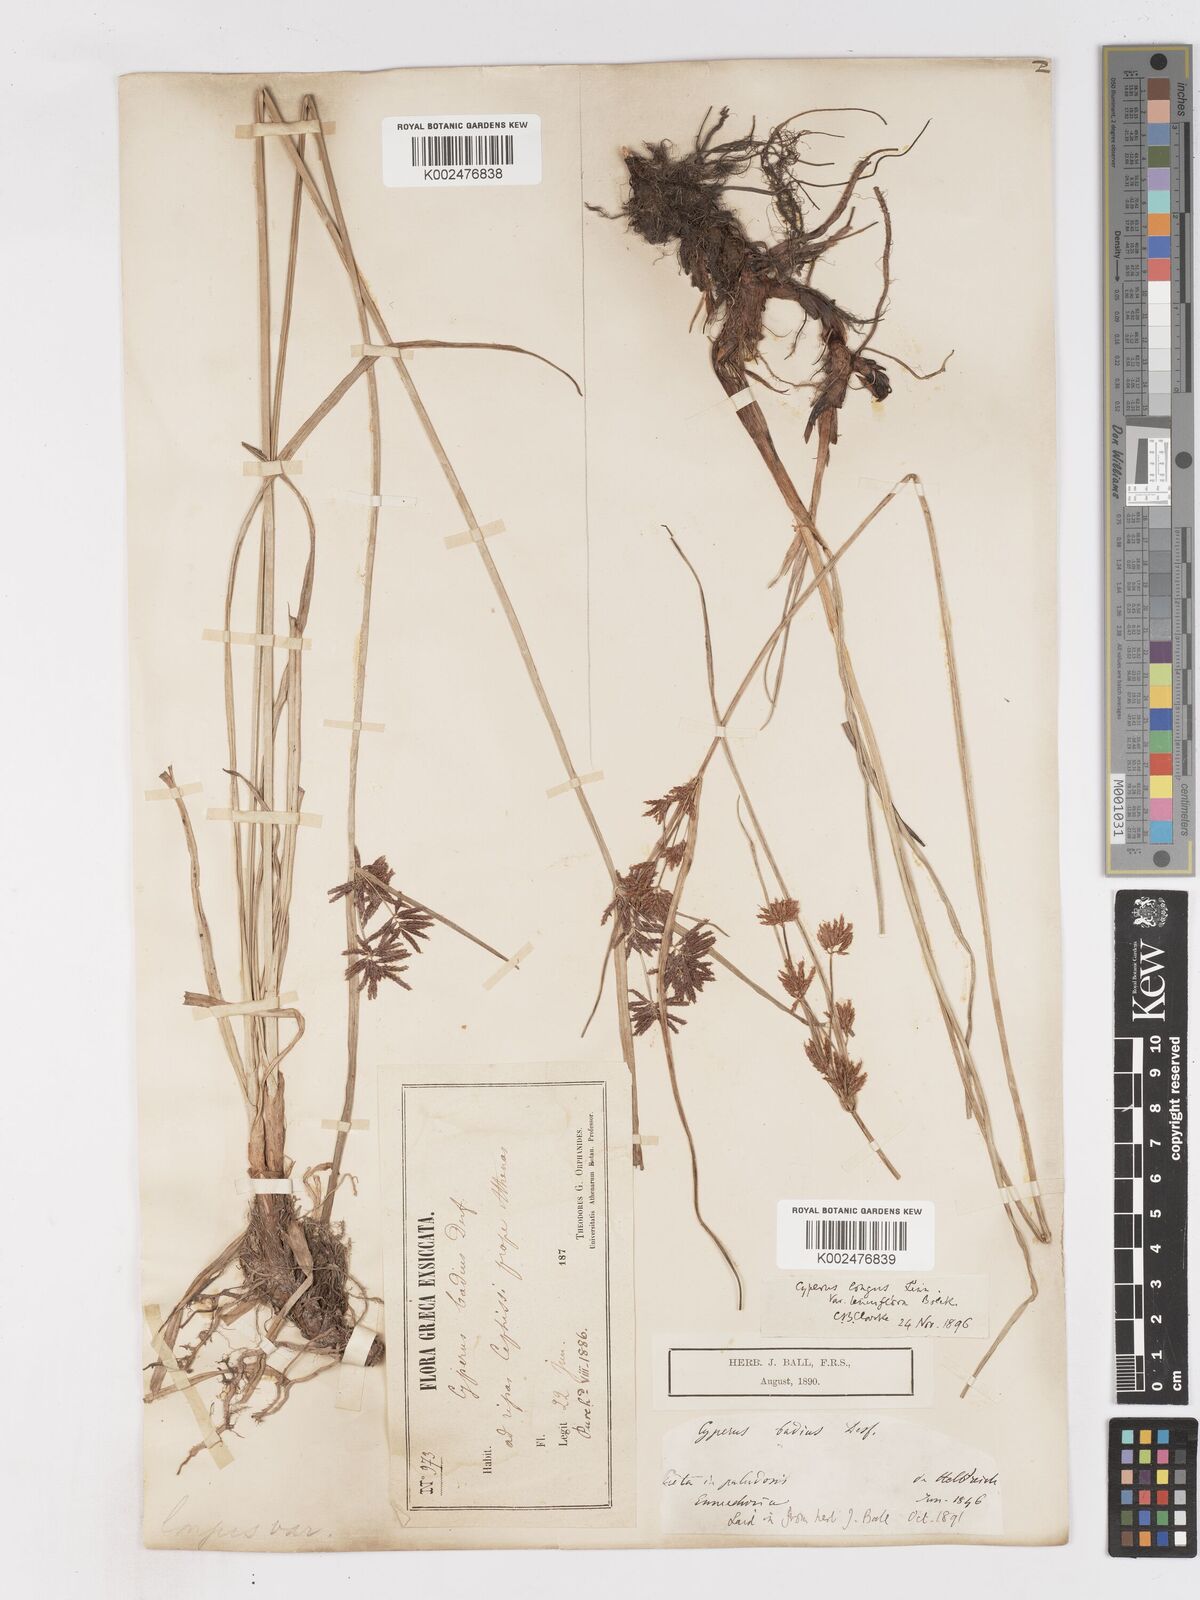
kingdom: Plantae
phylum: Tracheophyta
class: Liliopsida
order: Poales
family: Cyperaceae
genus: Cyperus
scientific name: Cyperus longus
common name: Galingale
